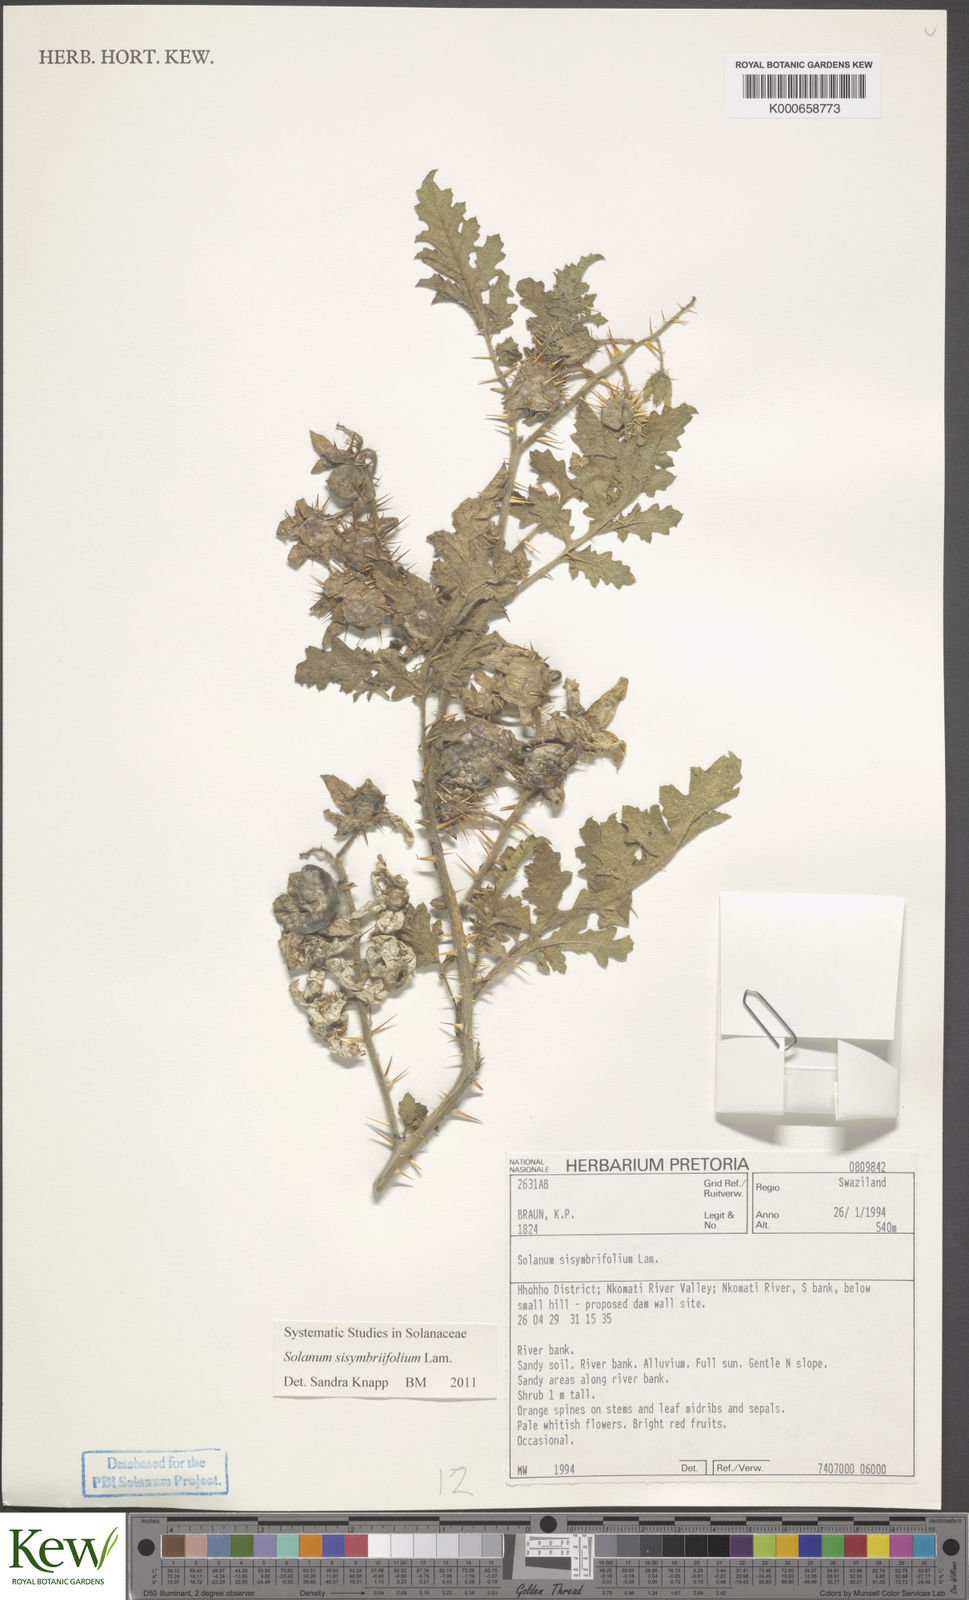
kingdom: Plantae
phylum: Tracheophyta
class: Magnoliopsida
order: Solanales
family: Solanaceae
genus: Solanum
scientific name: Solanum sisymbriifolium
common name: Red buffalo-bur
